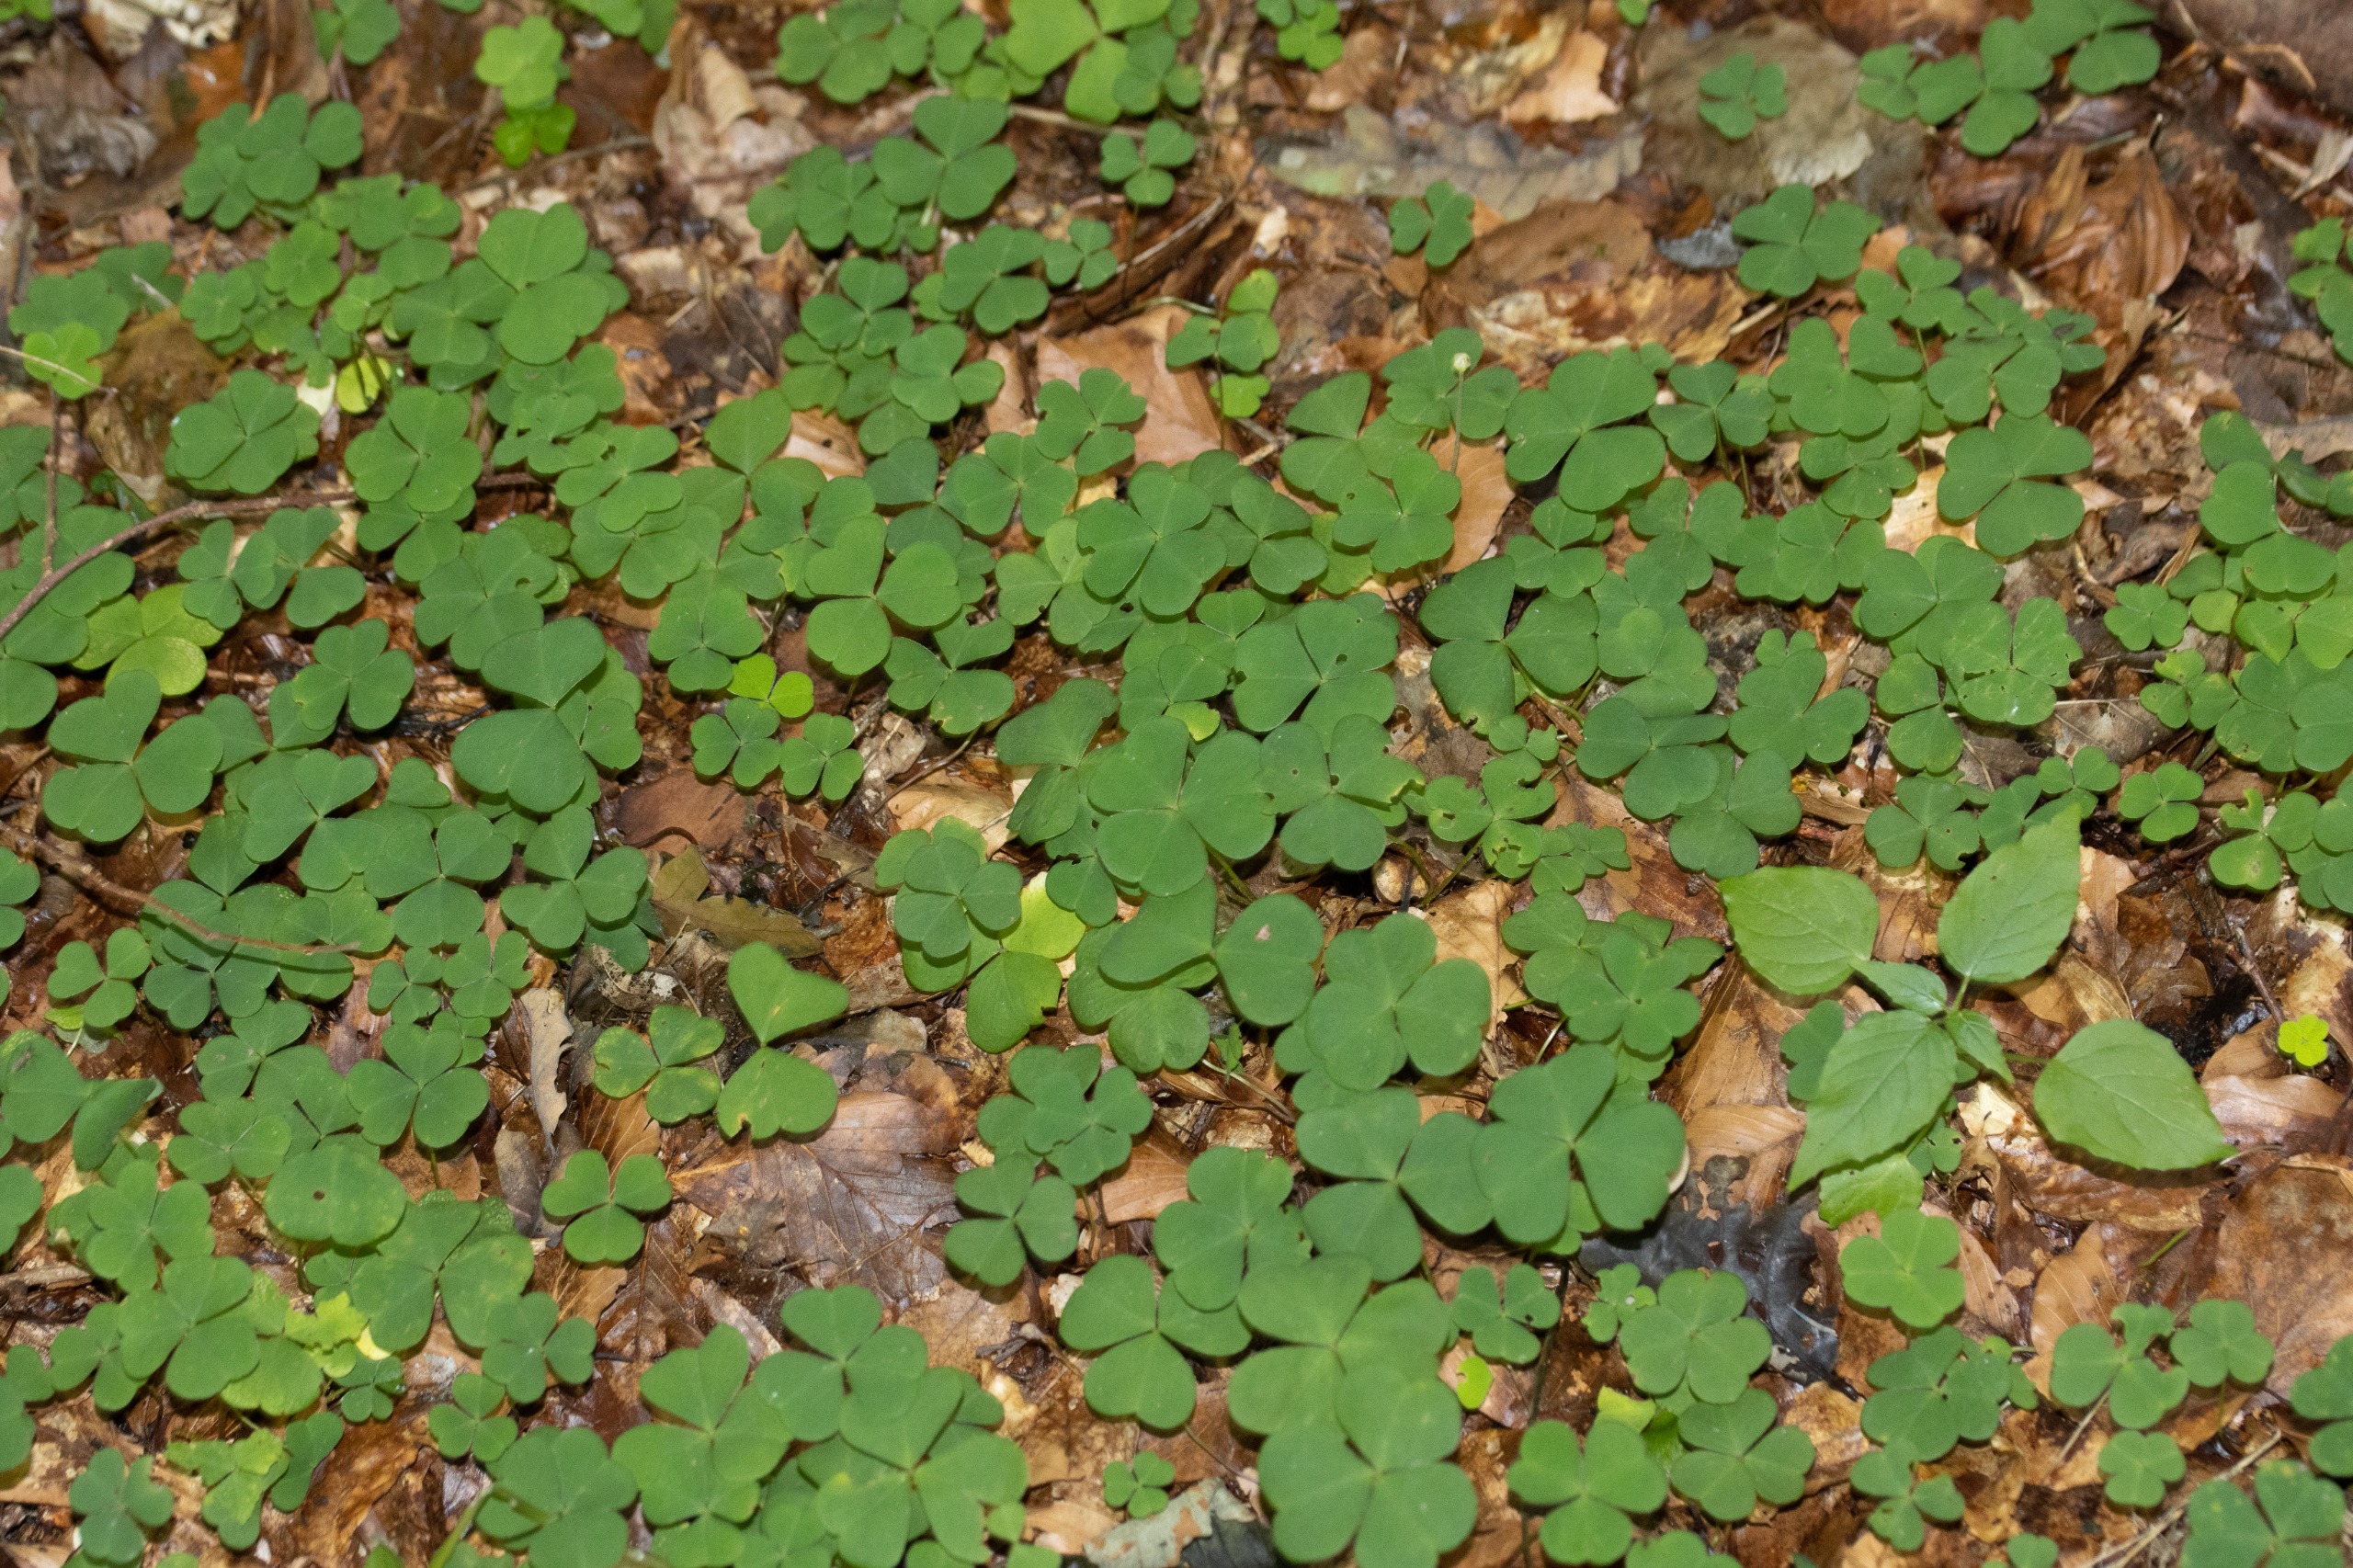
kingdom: Plantae
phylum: Tracheophyta
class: Magnoliopsida
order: Oxalidales
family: Oxalidaceae
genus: Oxalis
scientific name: Oxalis acetosella
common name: Skovsyre
